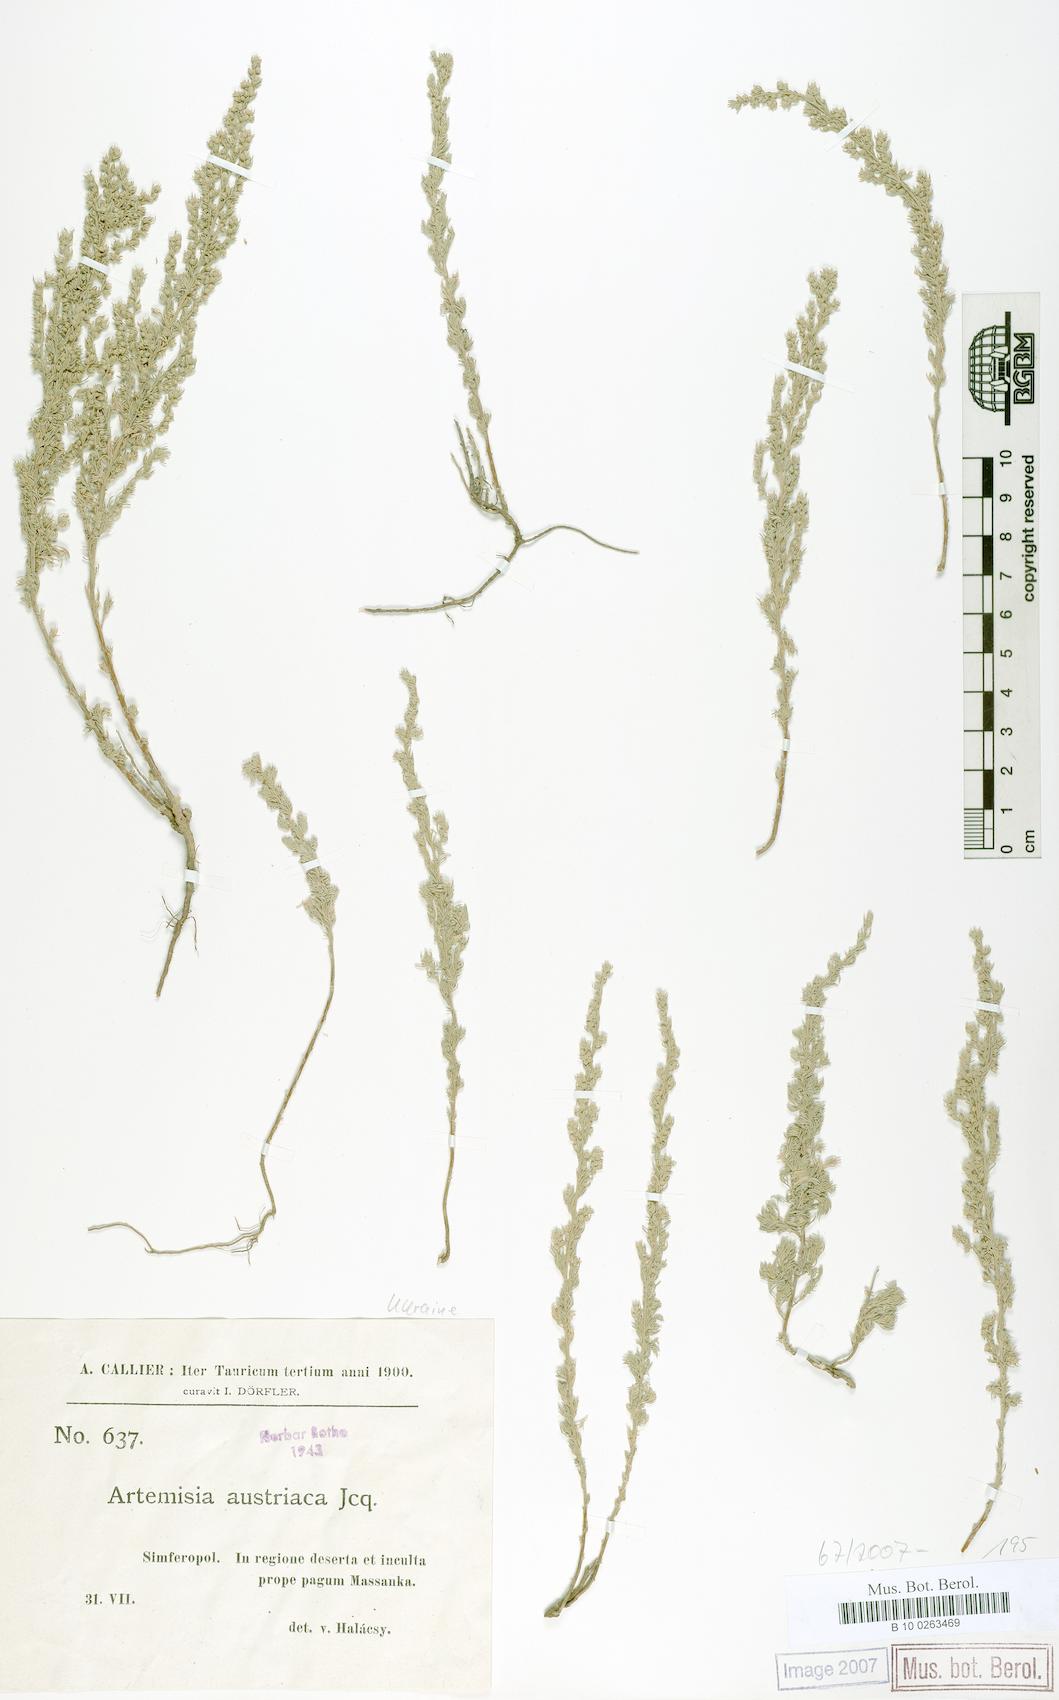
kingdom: Plantae
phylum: Tracheophyta
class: Magnoliopsida
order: Asterales
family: Asteraceae
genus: Artemisia
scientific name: Artemisia austriaca
